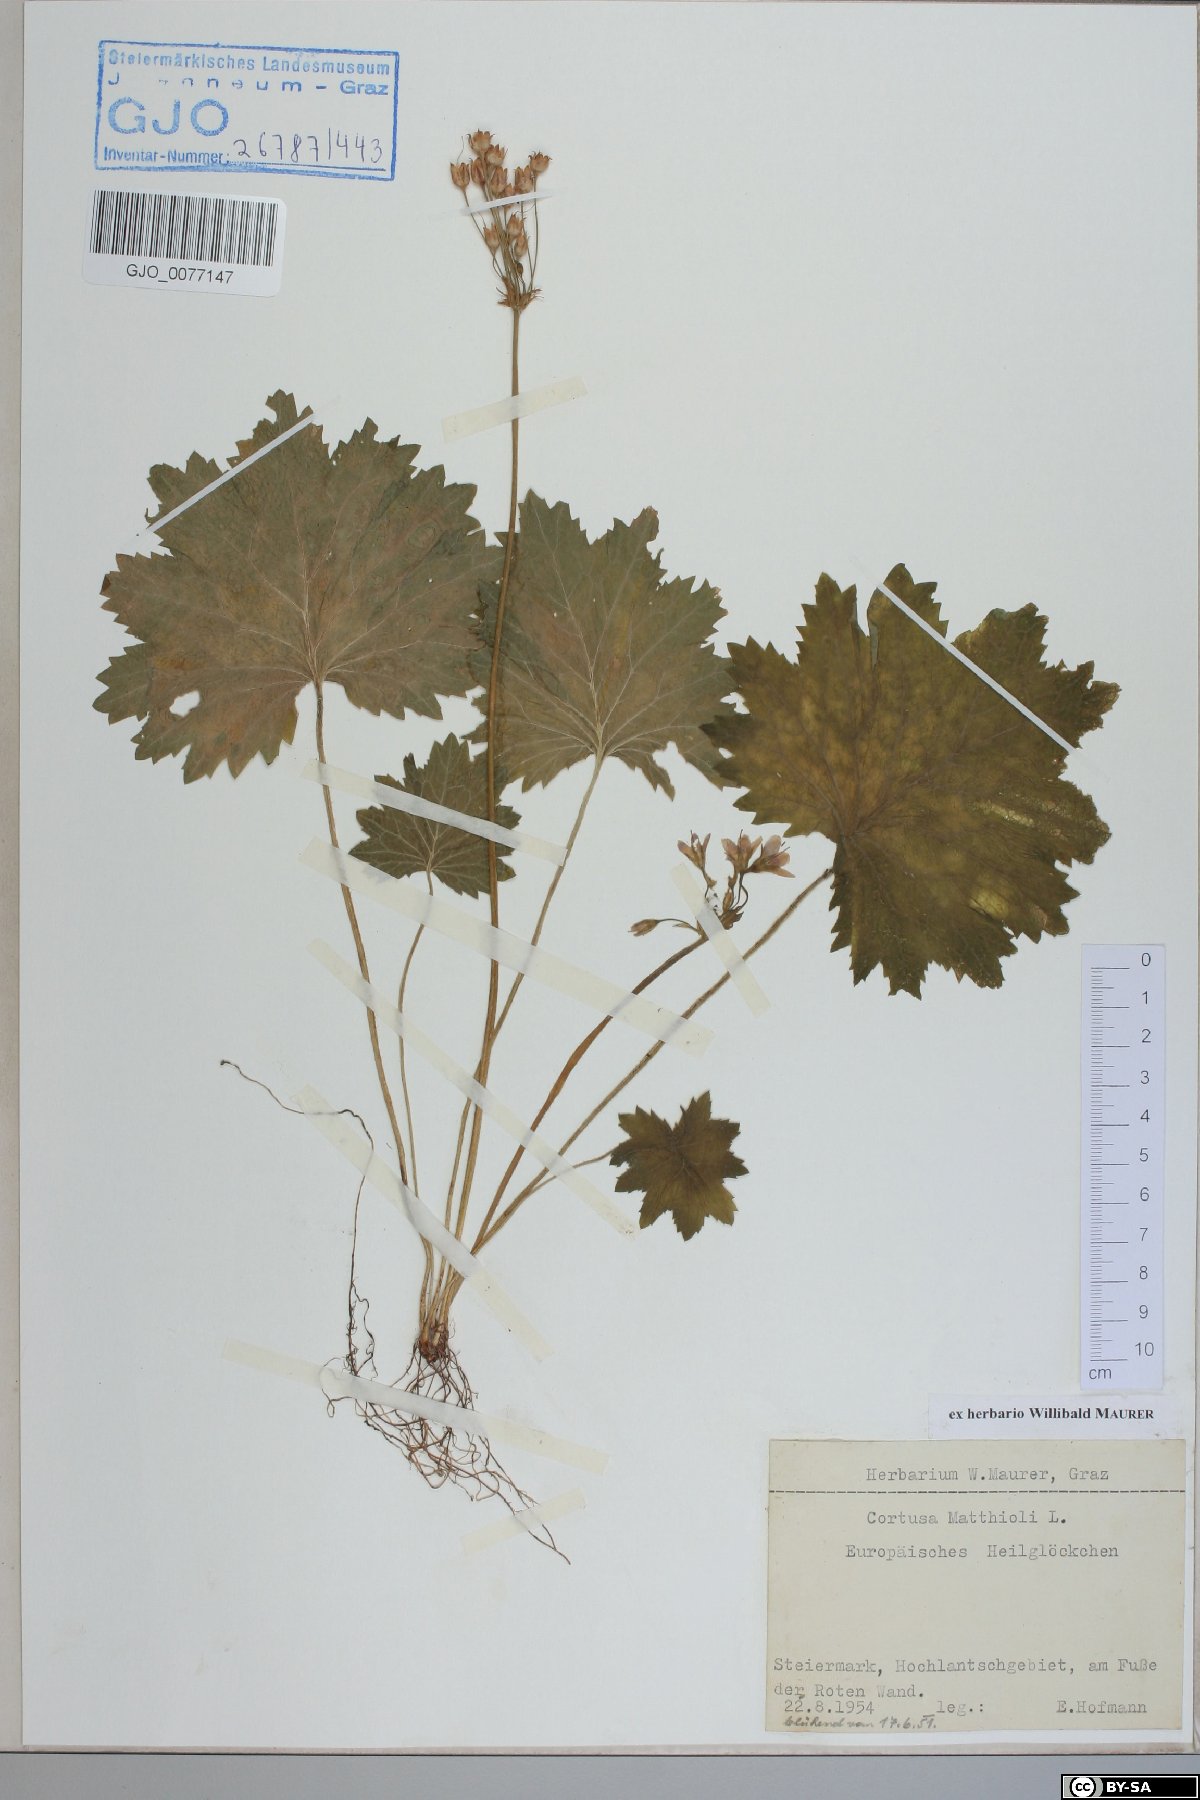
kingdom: Plantae
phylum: Tracheophyta
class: Magnoliopsida
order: Ericales
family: Primulaceae
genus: Primula
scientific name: Primula matthioli
